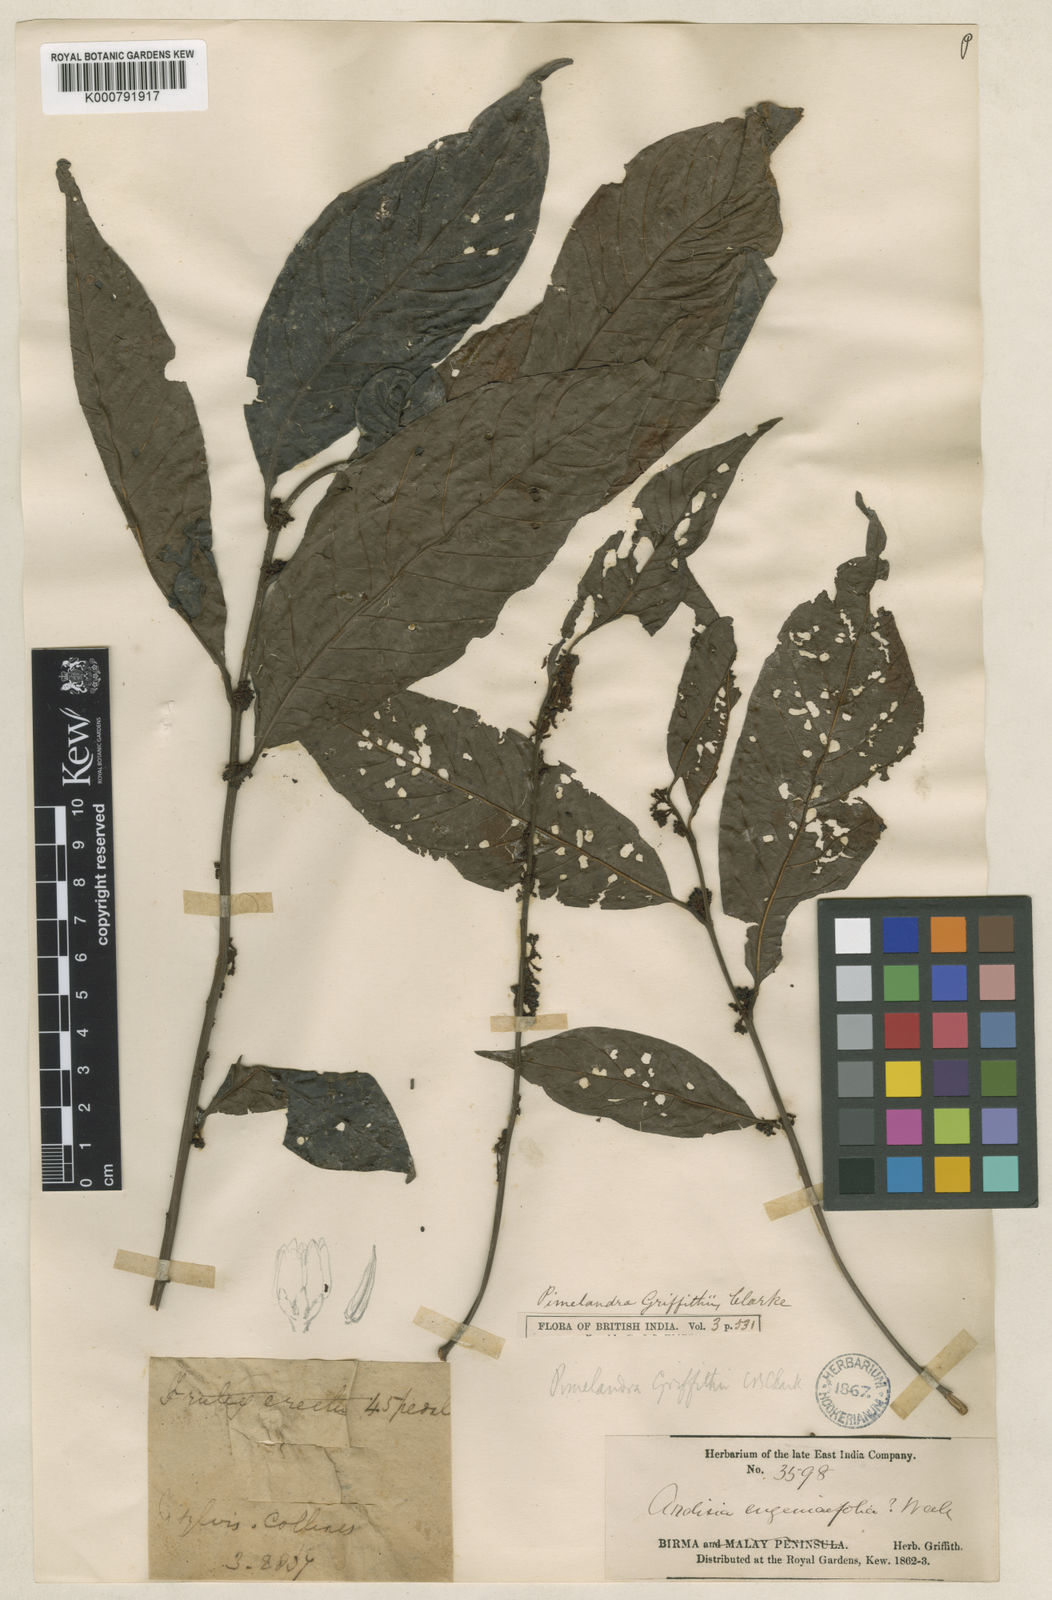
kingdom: Plantae
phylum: Tracheophyta
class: Magnoliopsida
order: Ericales
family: Primulaceae
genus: Sadiria
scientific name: Sadiria griffithii
